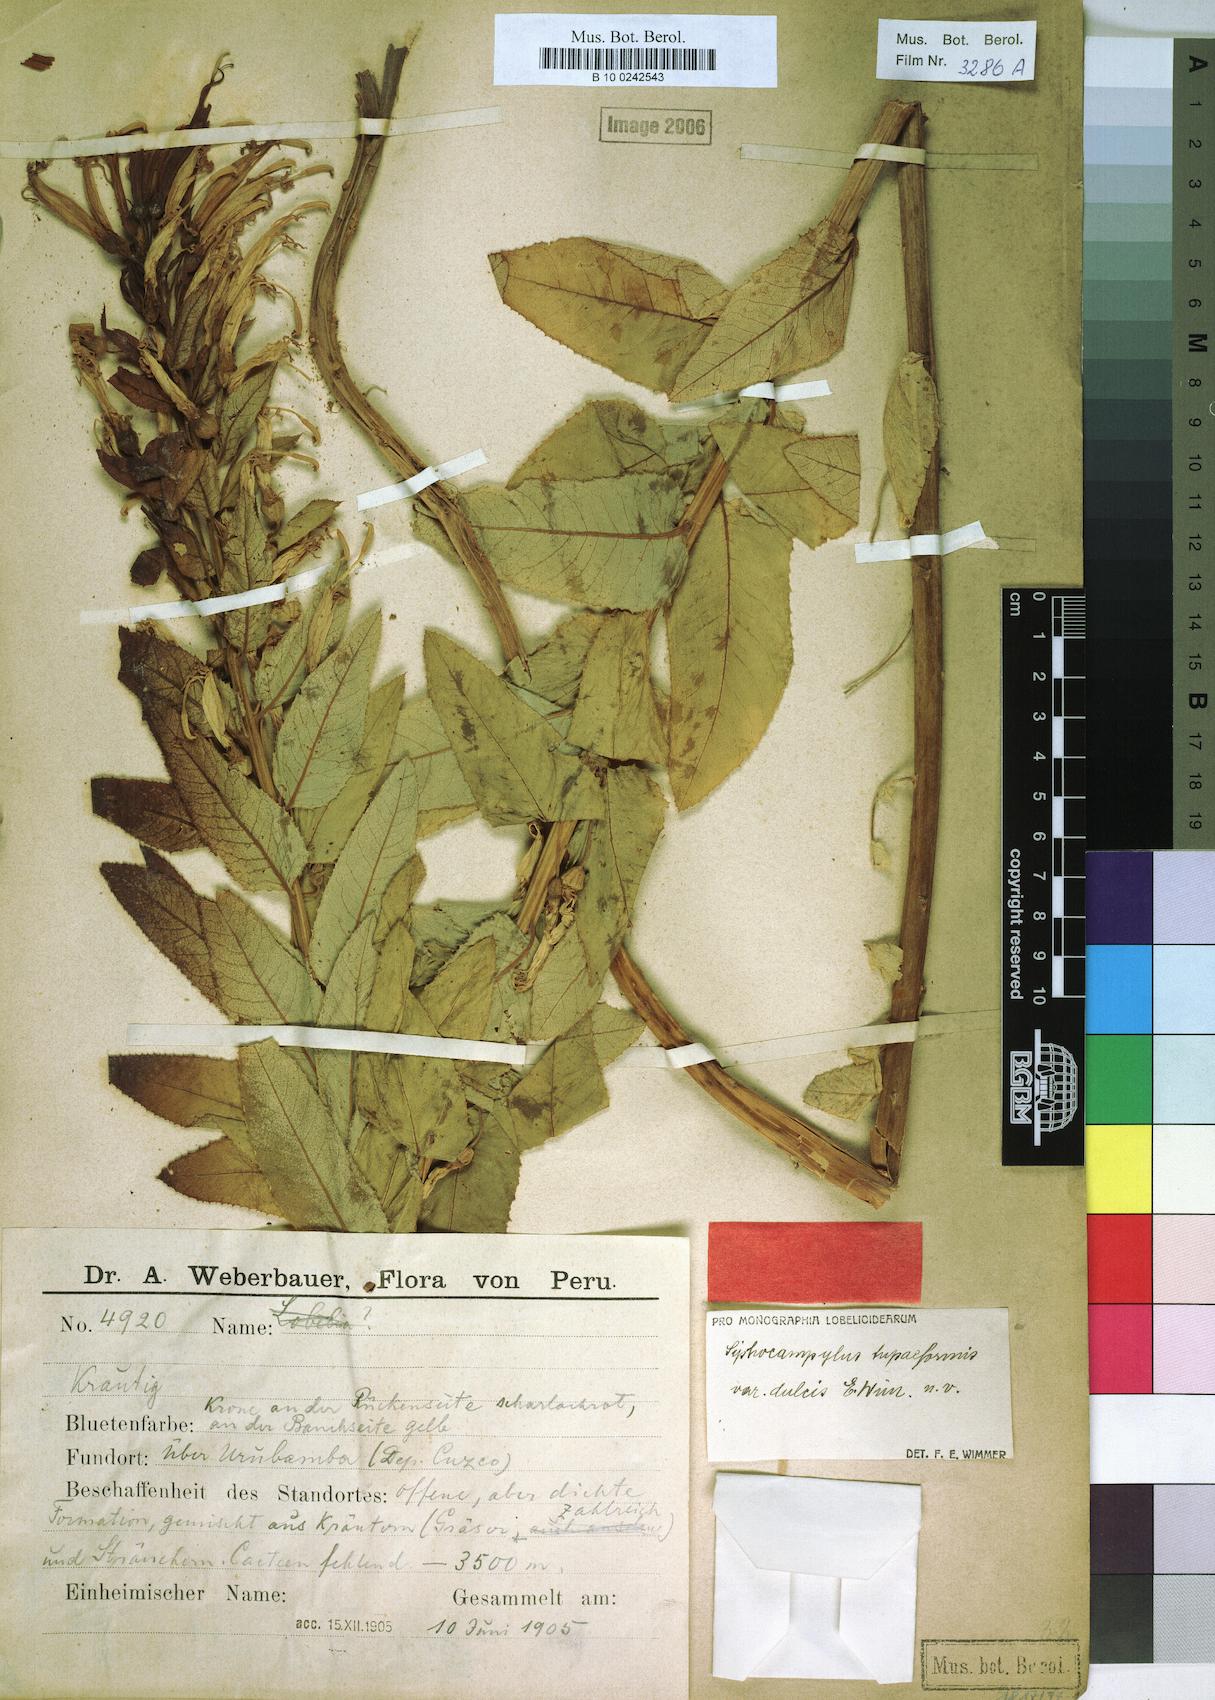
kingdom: Plantae
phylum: Tracheophyta
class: Magnoliopsida
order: Asterales
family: Campanulaceae
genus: Siphocampylus
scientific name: Siphocampylus tupaeformis
